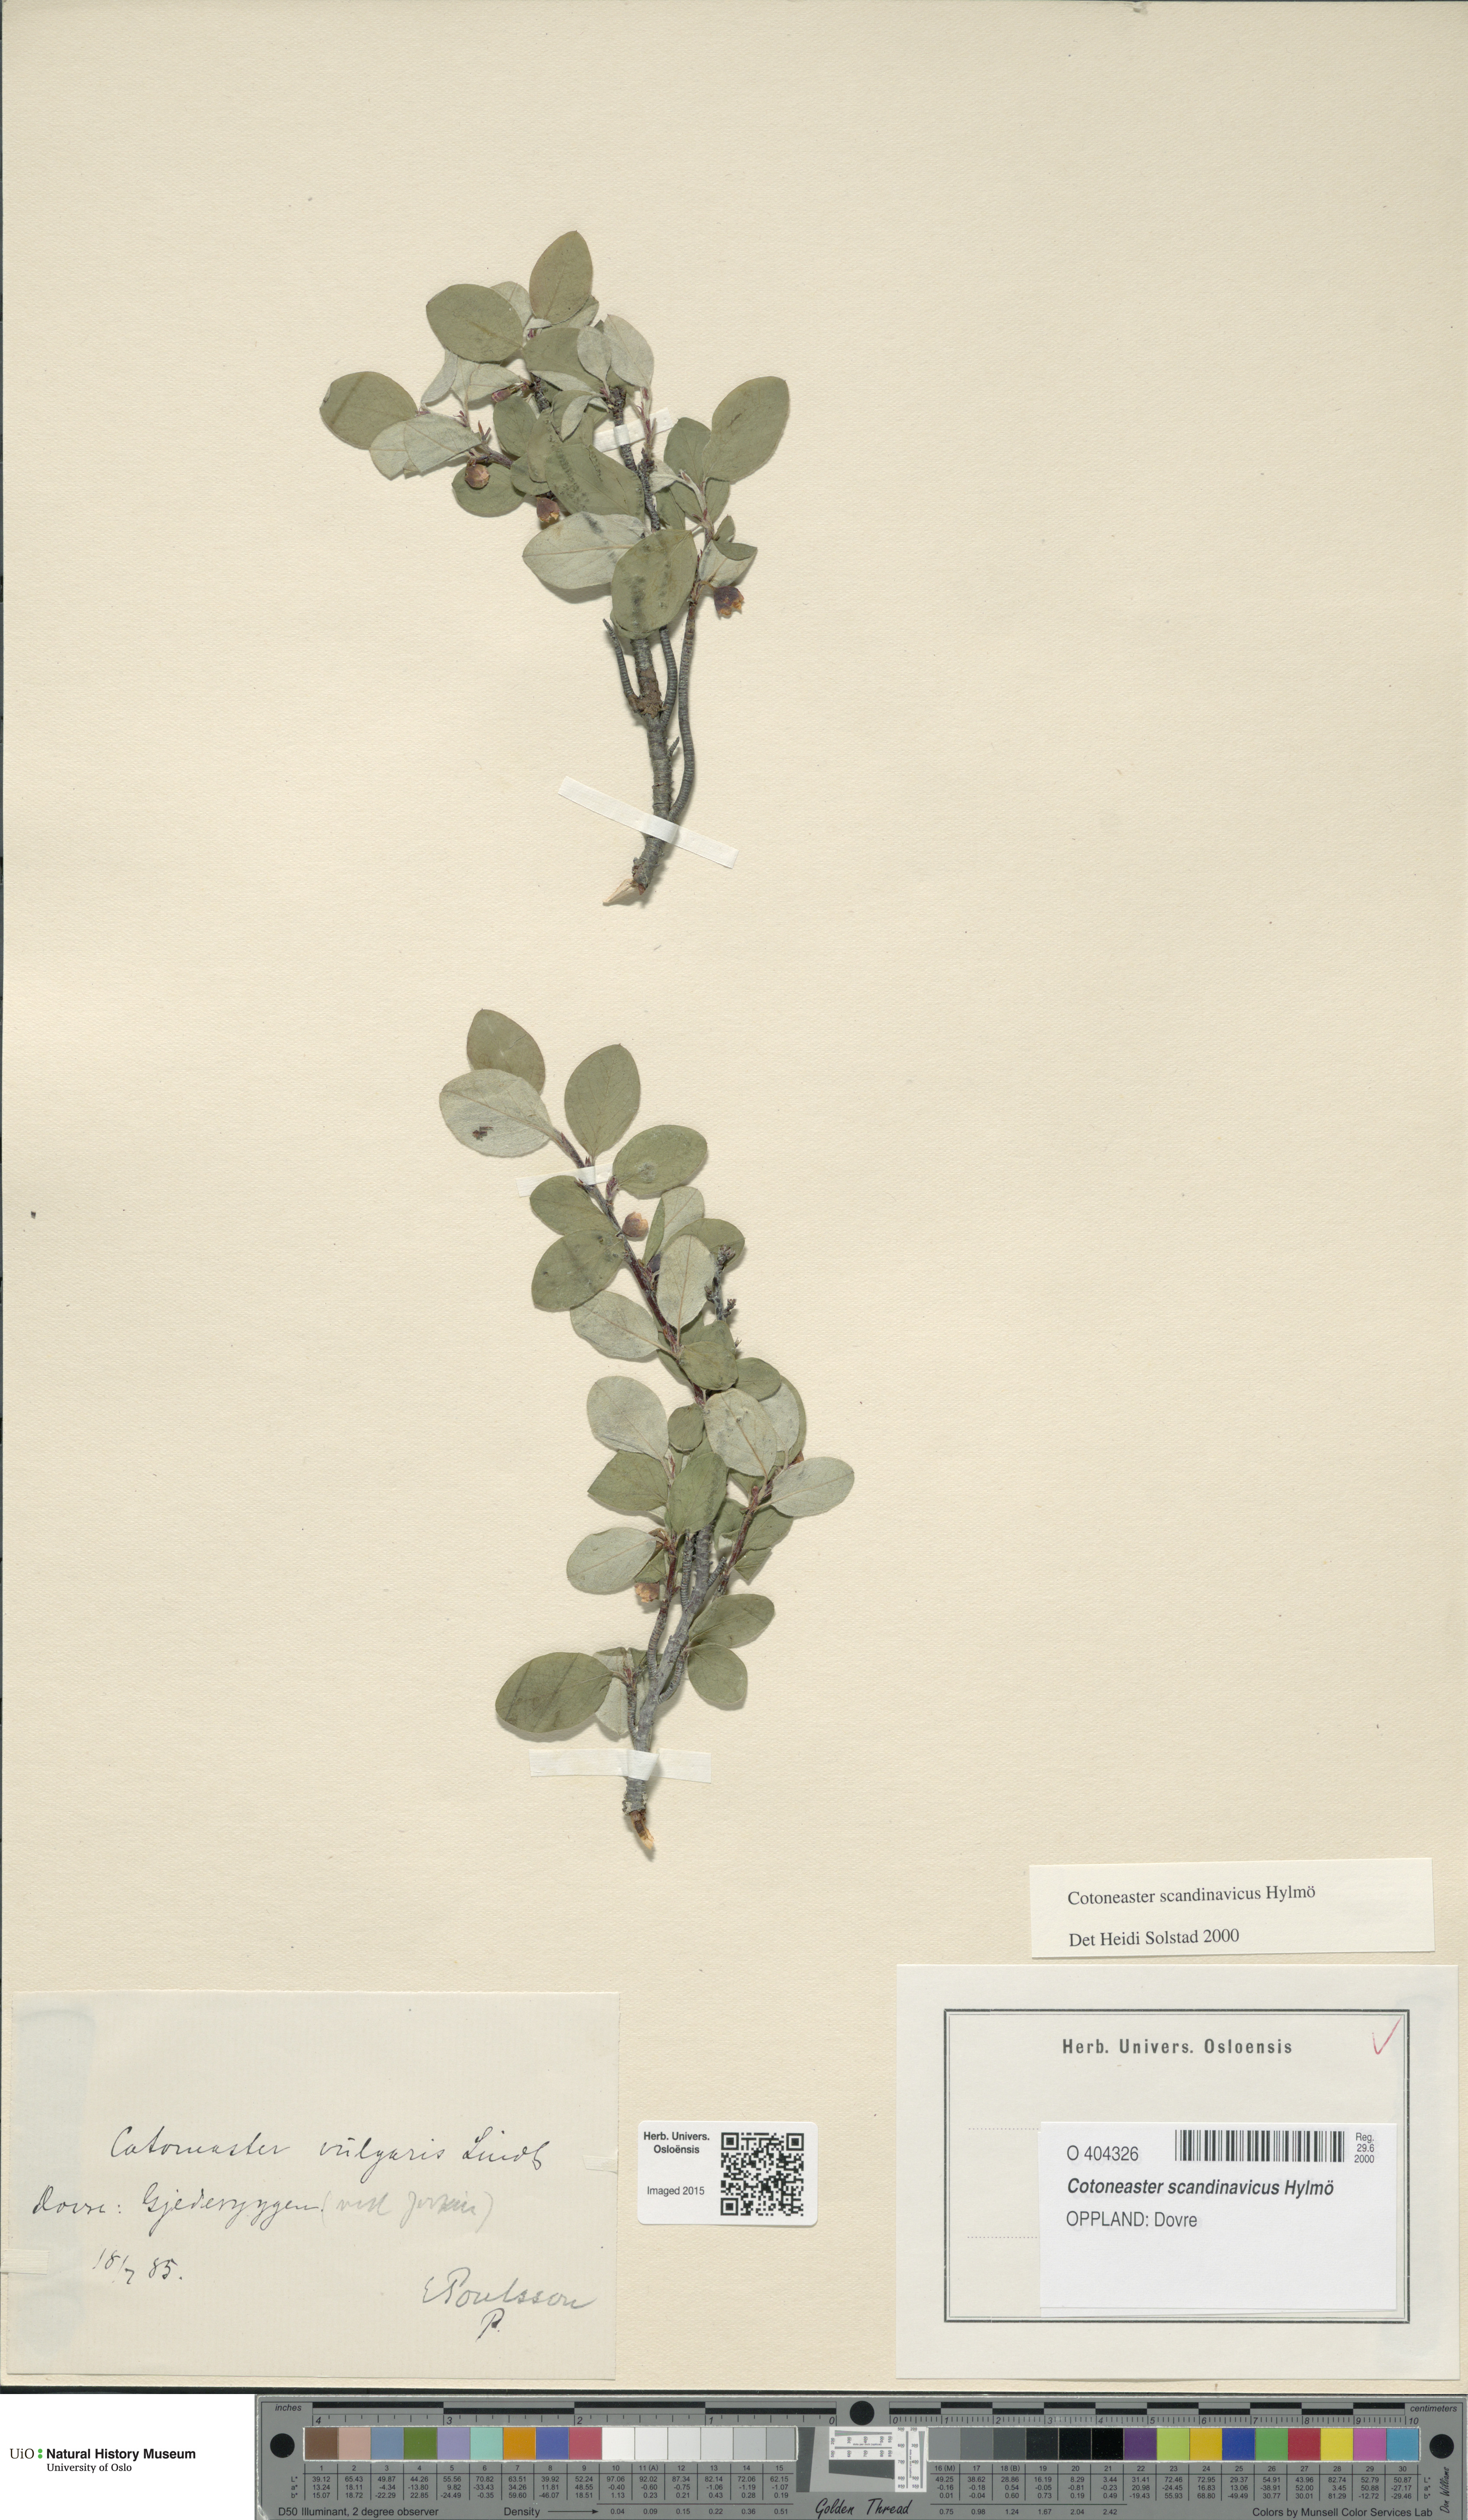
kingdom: Plantae
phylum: Tracheophyta
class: Magnoliopsida
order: Rosales
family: Rosaceae
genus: Cotoneaster
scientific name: Cotoneaster integerrimus
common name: Wild cotoneaster
